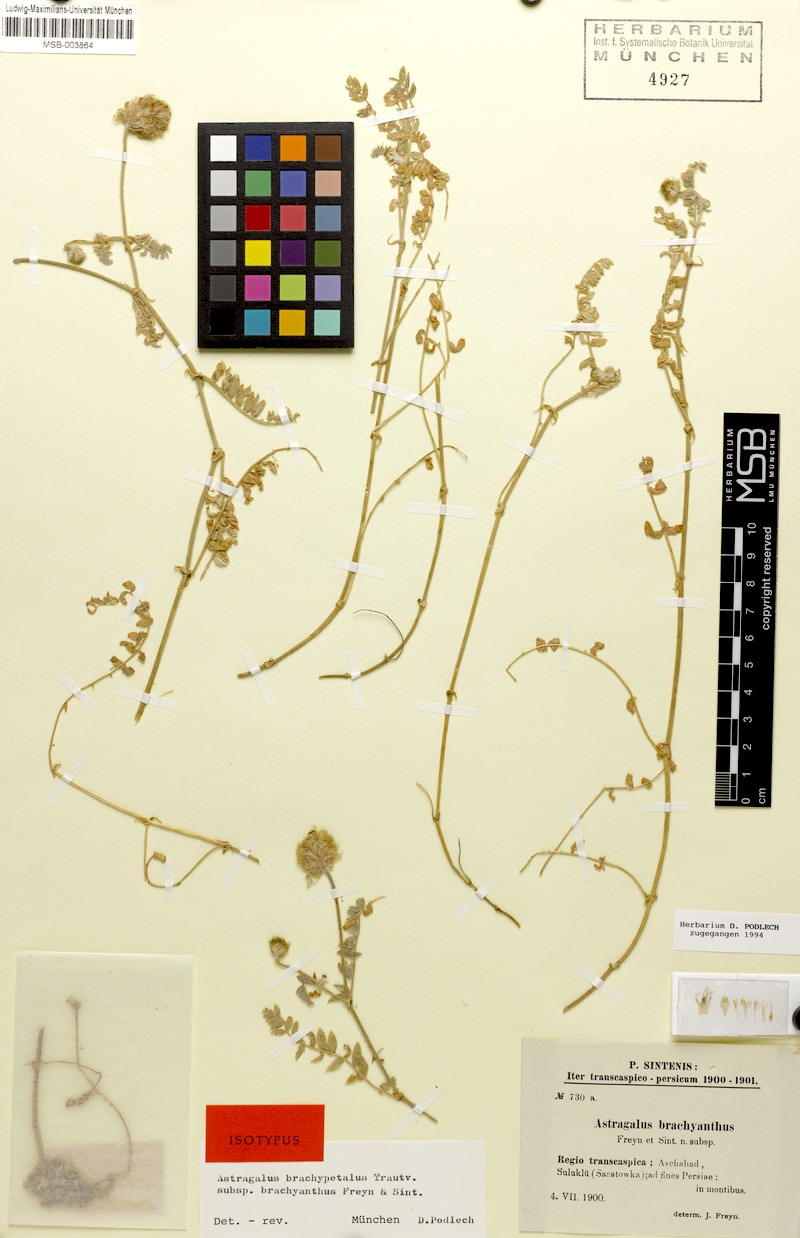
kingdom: Plantae
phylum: Tracheophyta
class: Magnoliopsida
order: Fabales
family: Fabaceae
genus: Astragalus
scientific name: Astragalus brachypetalus
